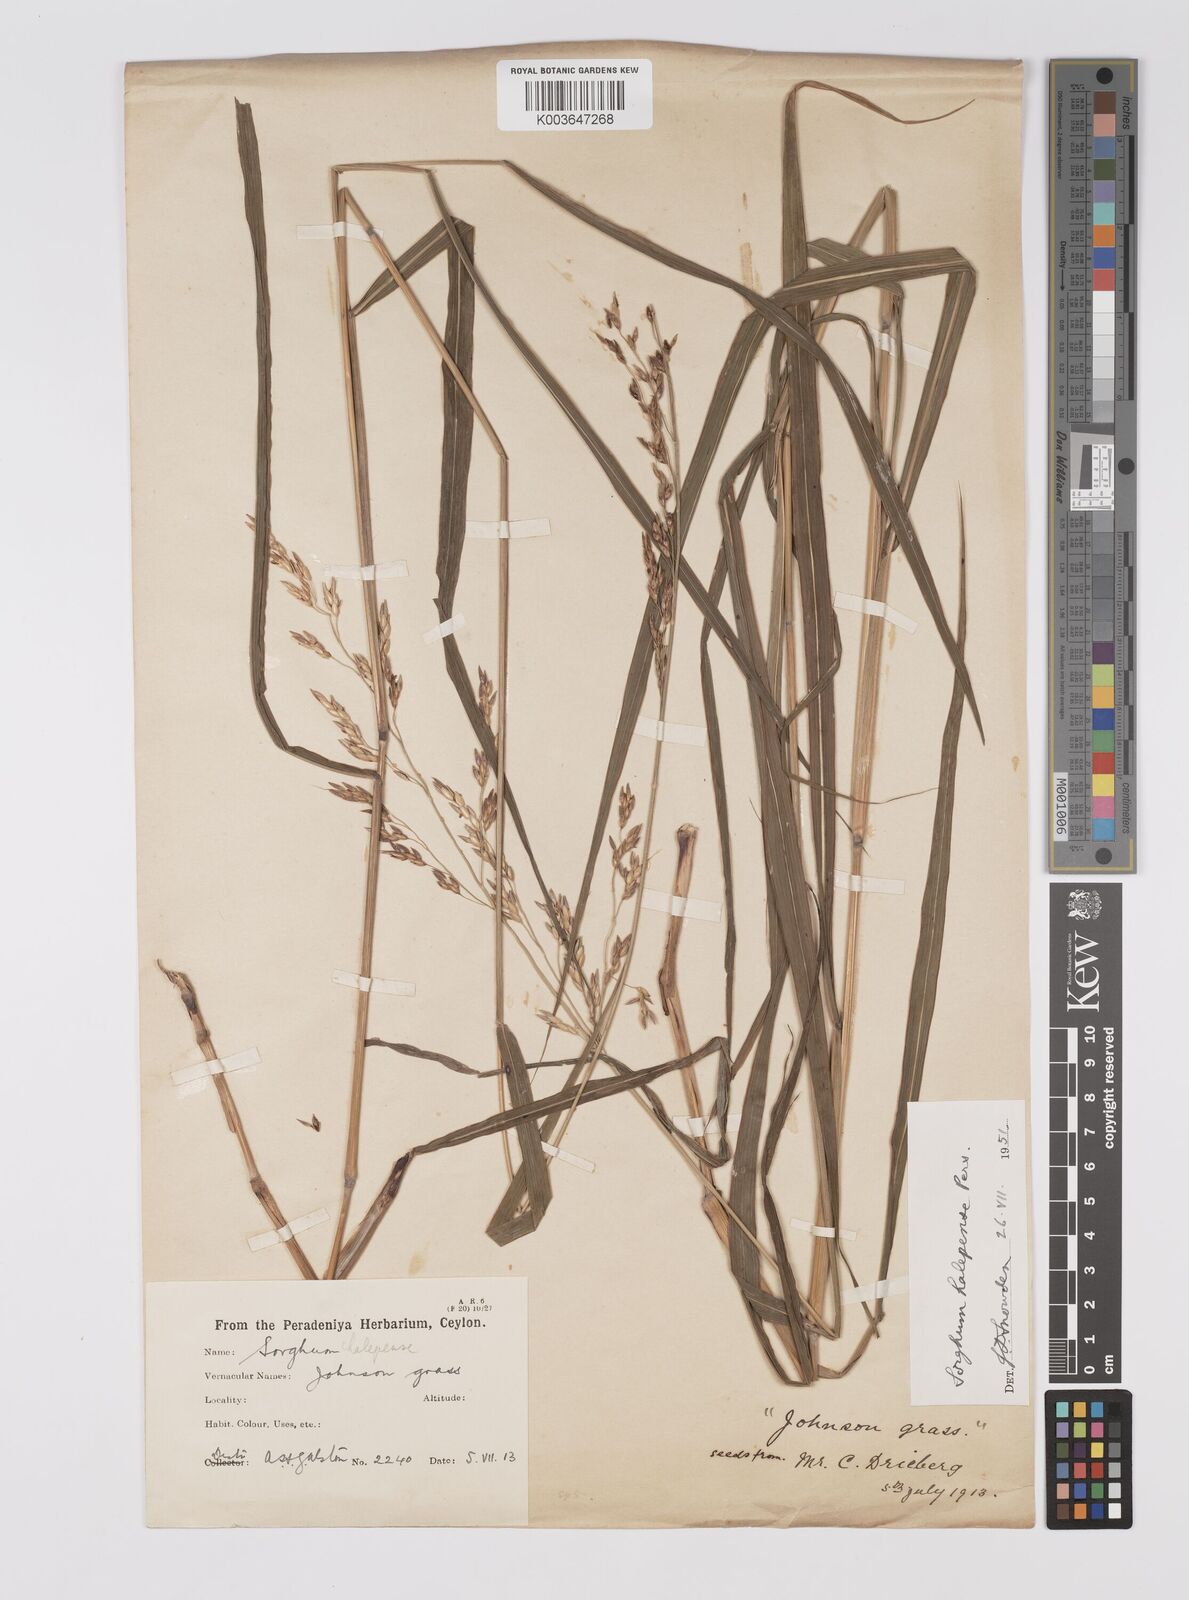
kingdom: Plantae
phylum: Tracheophyta
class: Liliopsida
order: Poales
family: Poaceae
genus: Sorghum
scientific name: Sorghum halepense
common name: Johnson-grass
